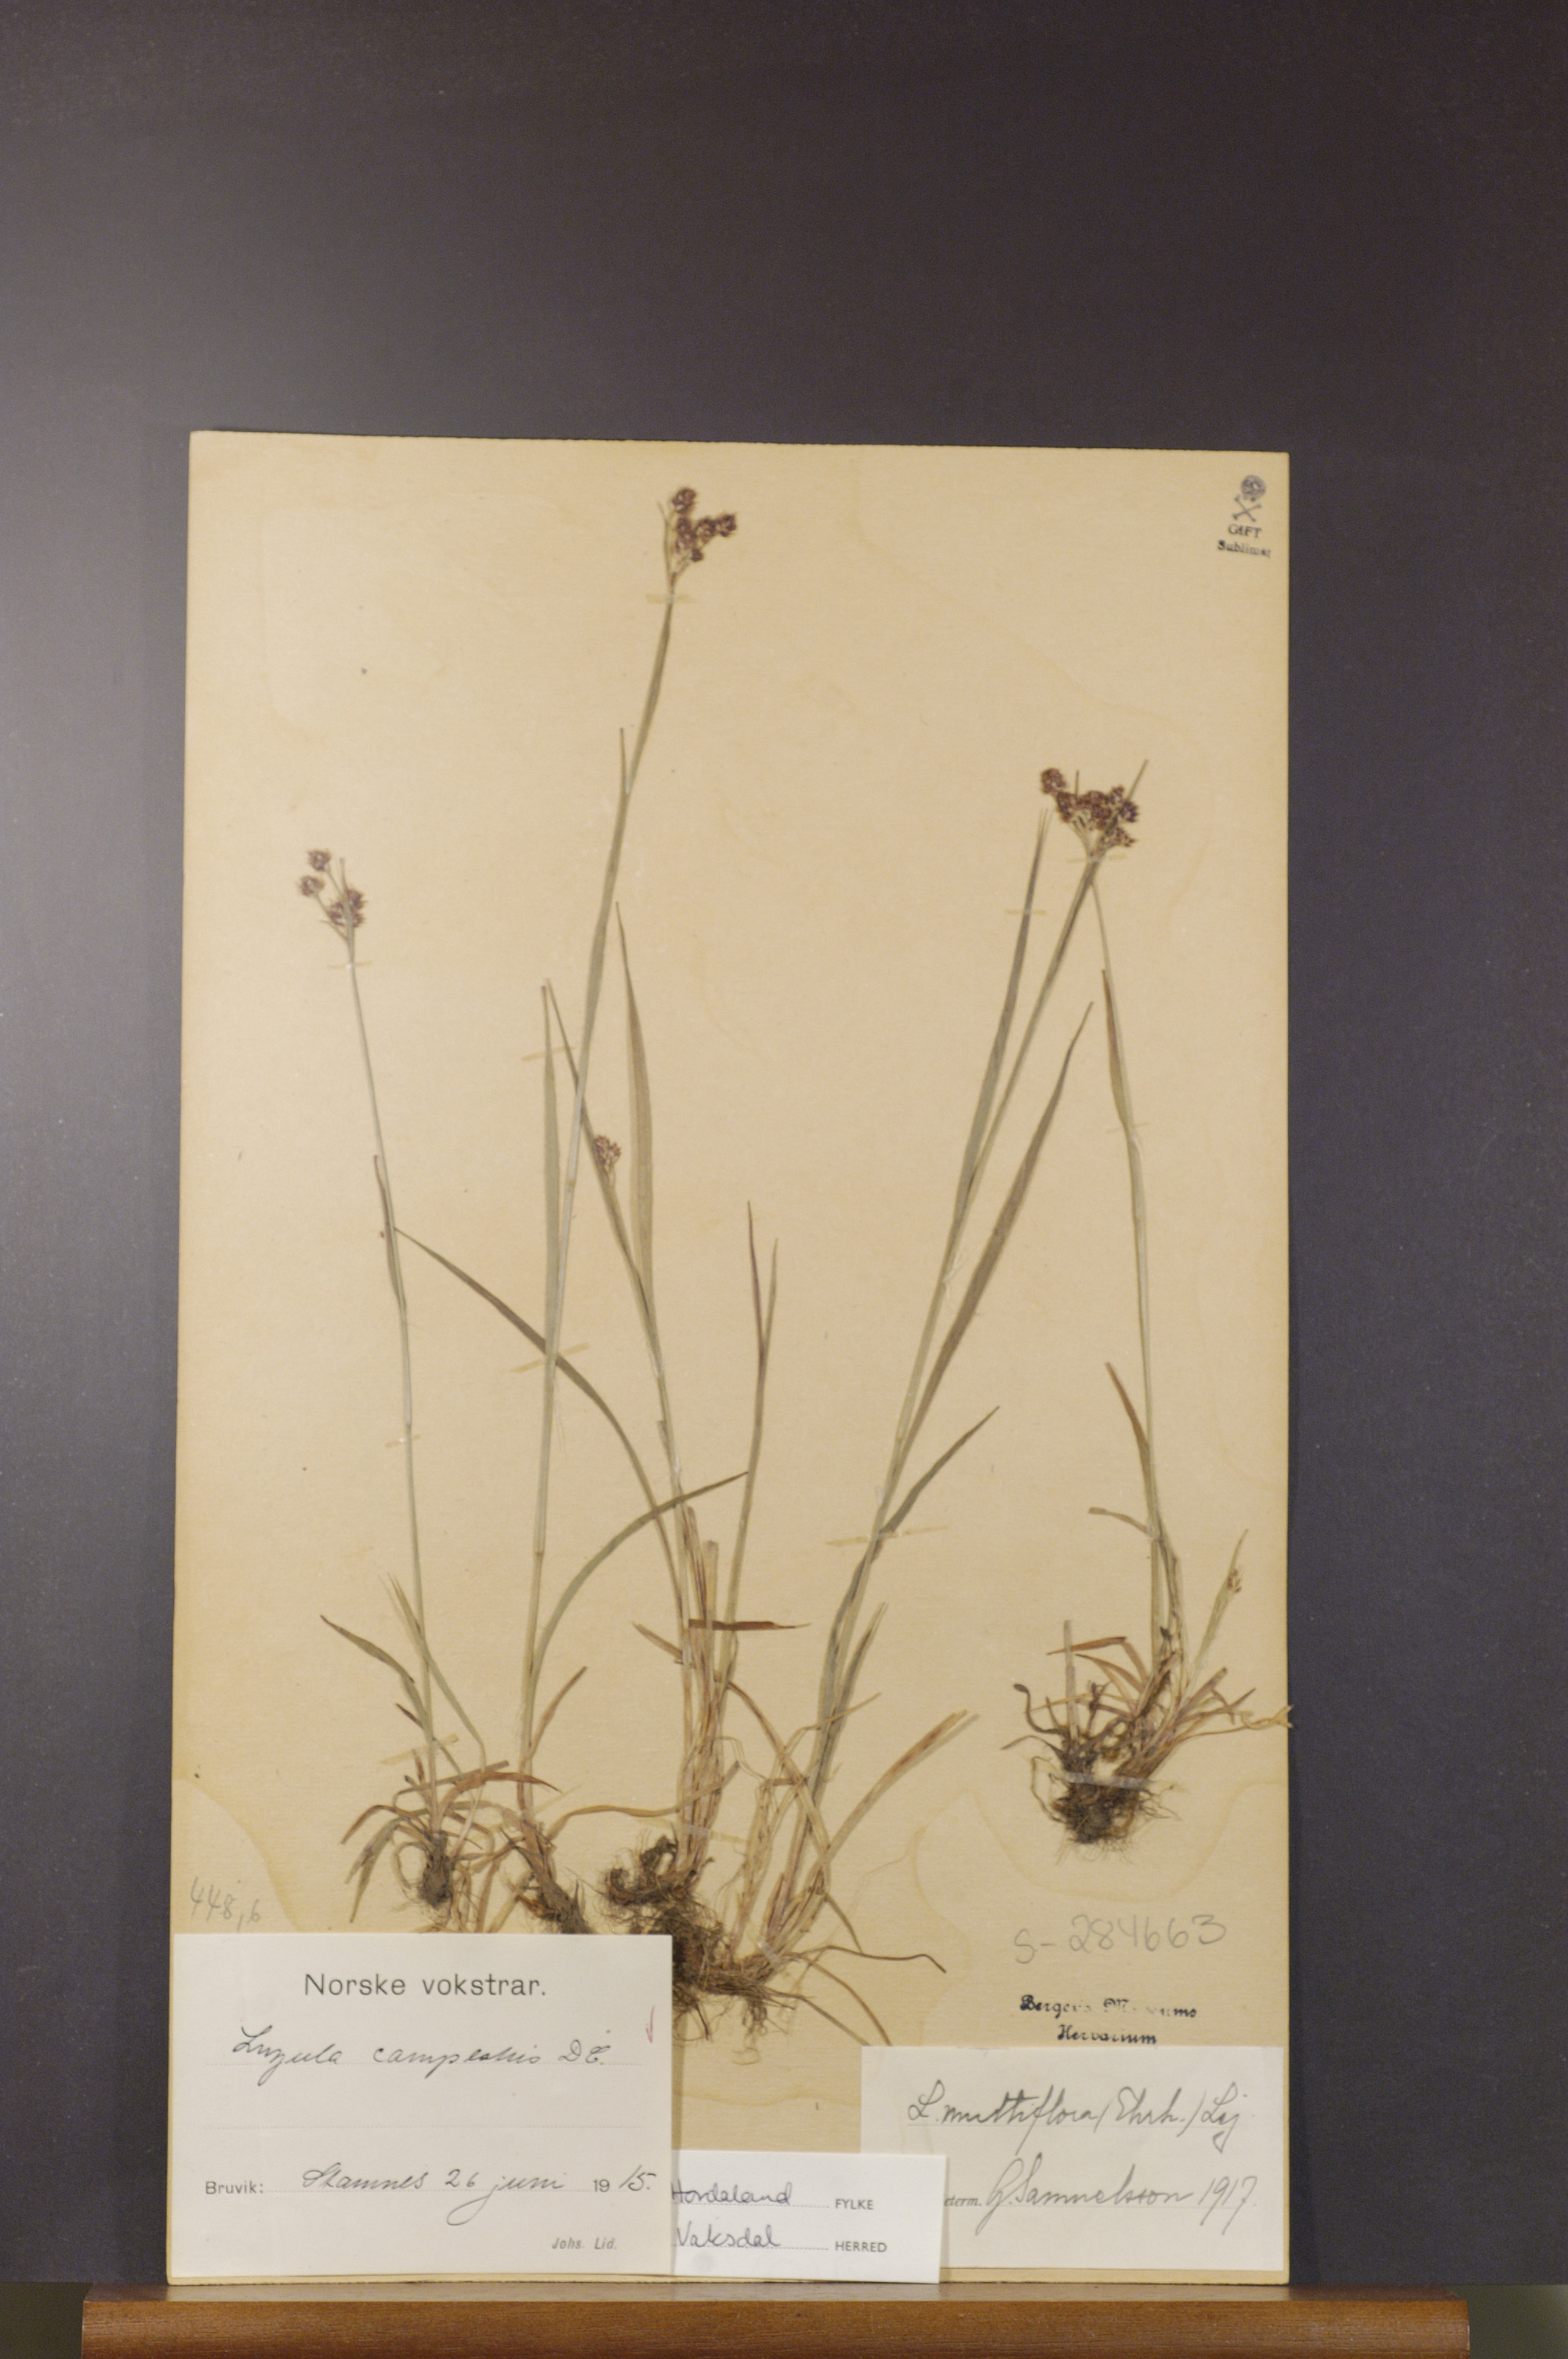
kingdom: Plantae
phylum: Tracheophyta
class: Liliopsida
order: Poales
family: Juncaceae
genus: Luzula
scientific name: Luzula multiflora
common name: Heath wood-rush
